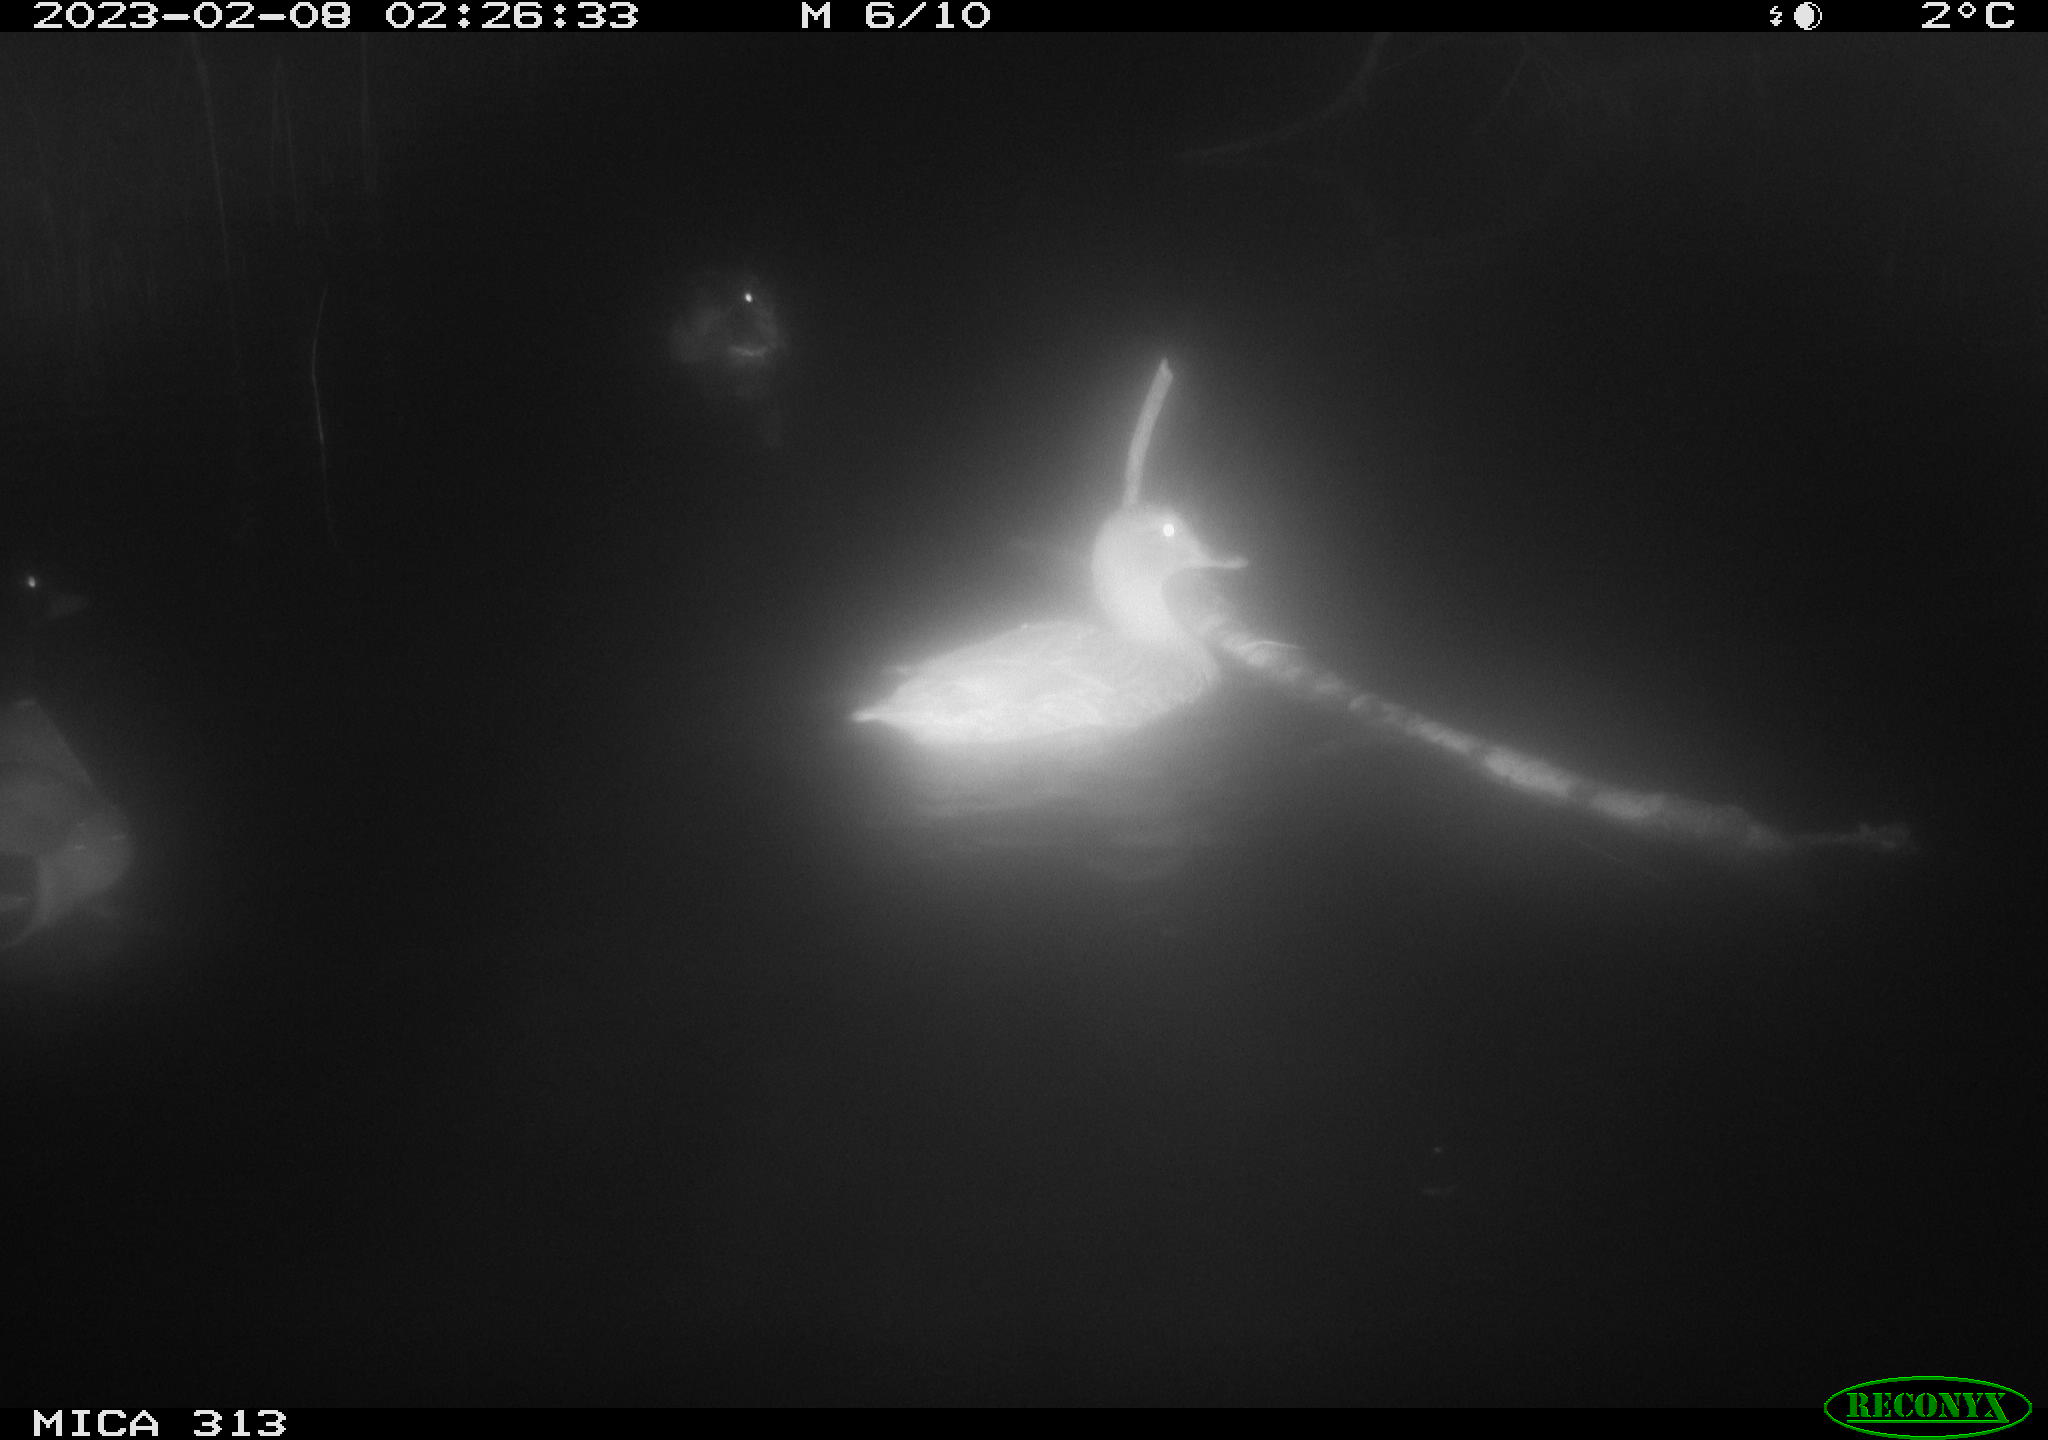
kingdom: Animalia
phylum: Chordata
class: Aves
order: Anseriformes
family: Anatidae
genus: Anas
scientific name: Anas
